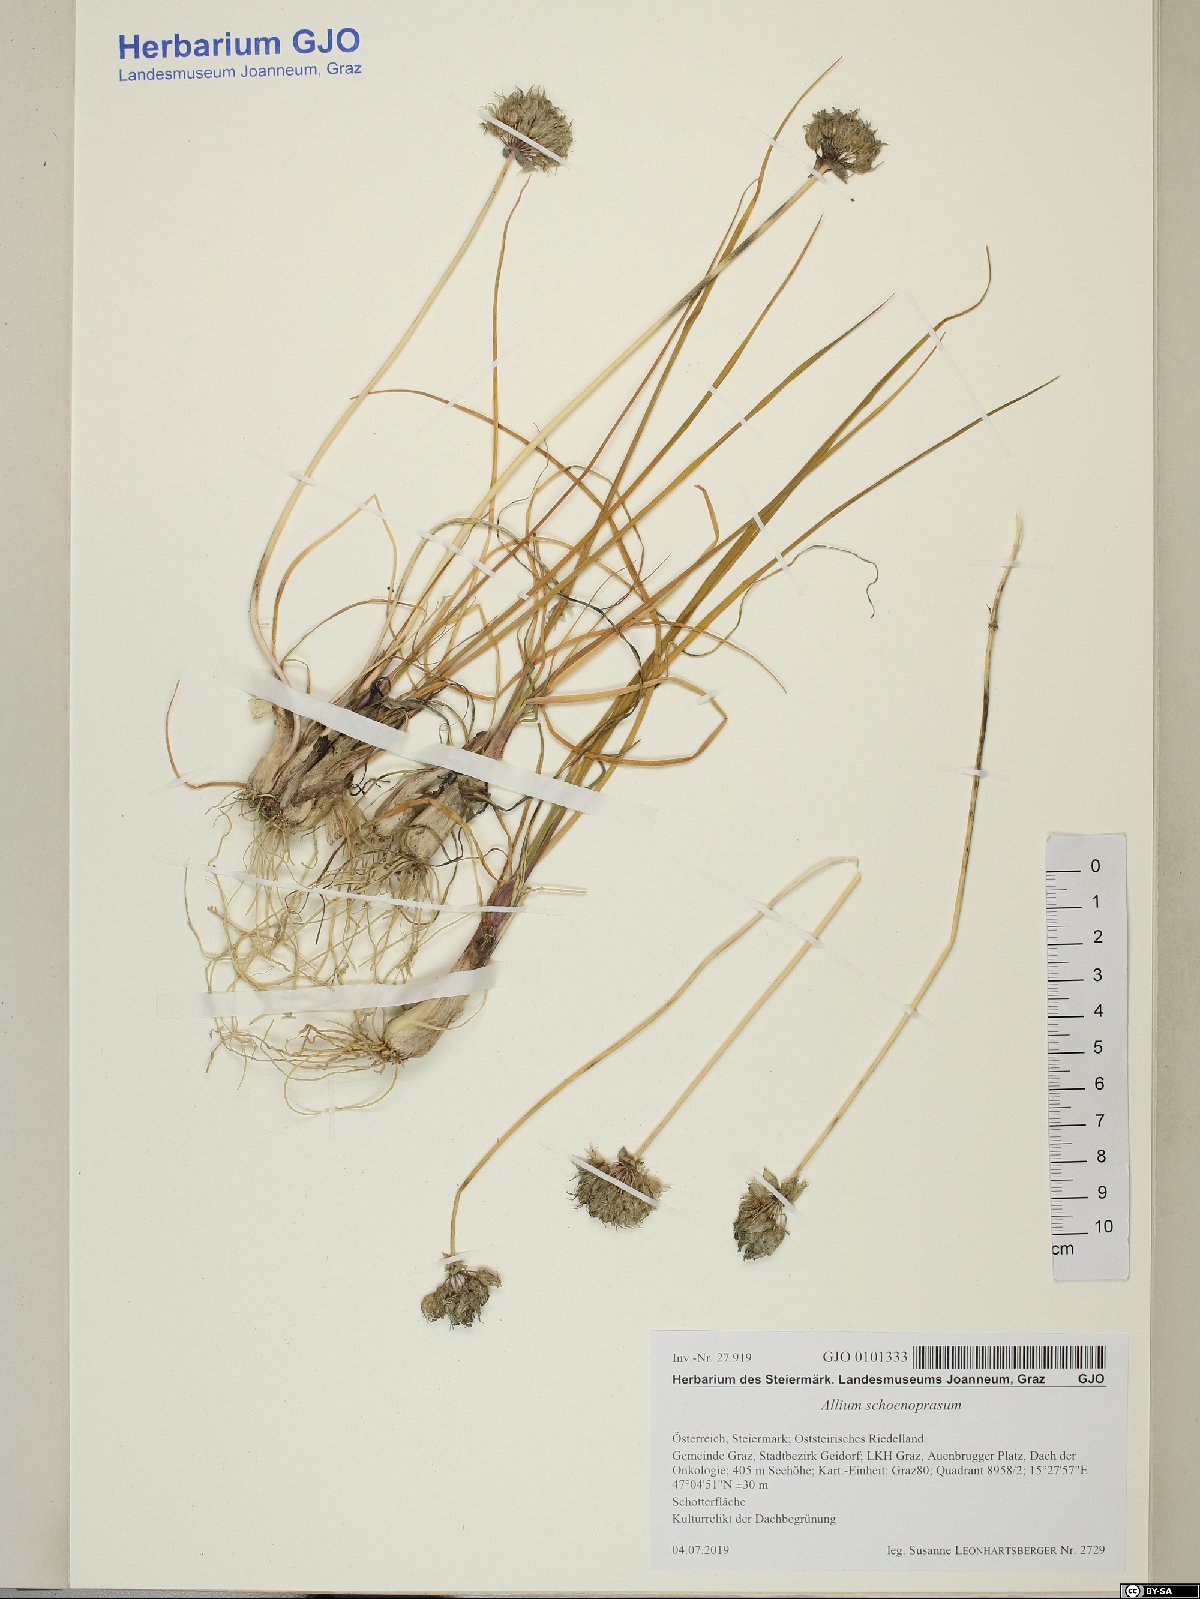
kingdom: Plantae
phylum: Tracheophyta
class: Liliopsida
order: Asparagales
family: Amaryllidaceae
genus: Allium
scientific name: Allium schoenoprasum
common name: Chives
